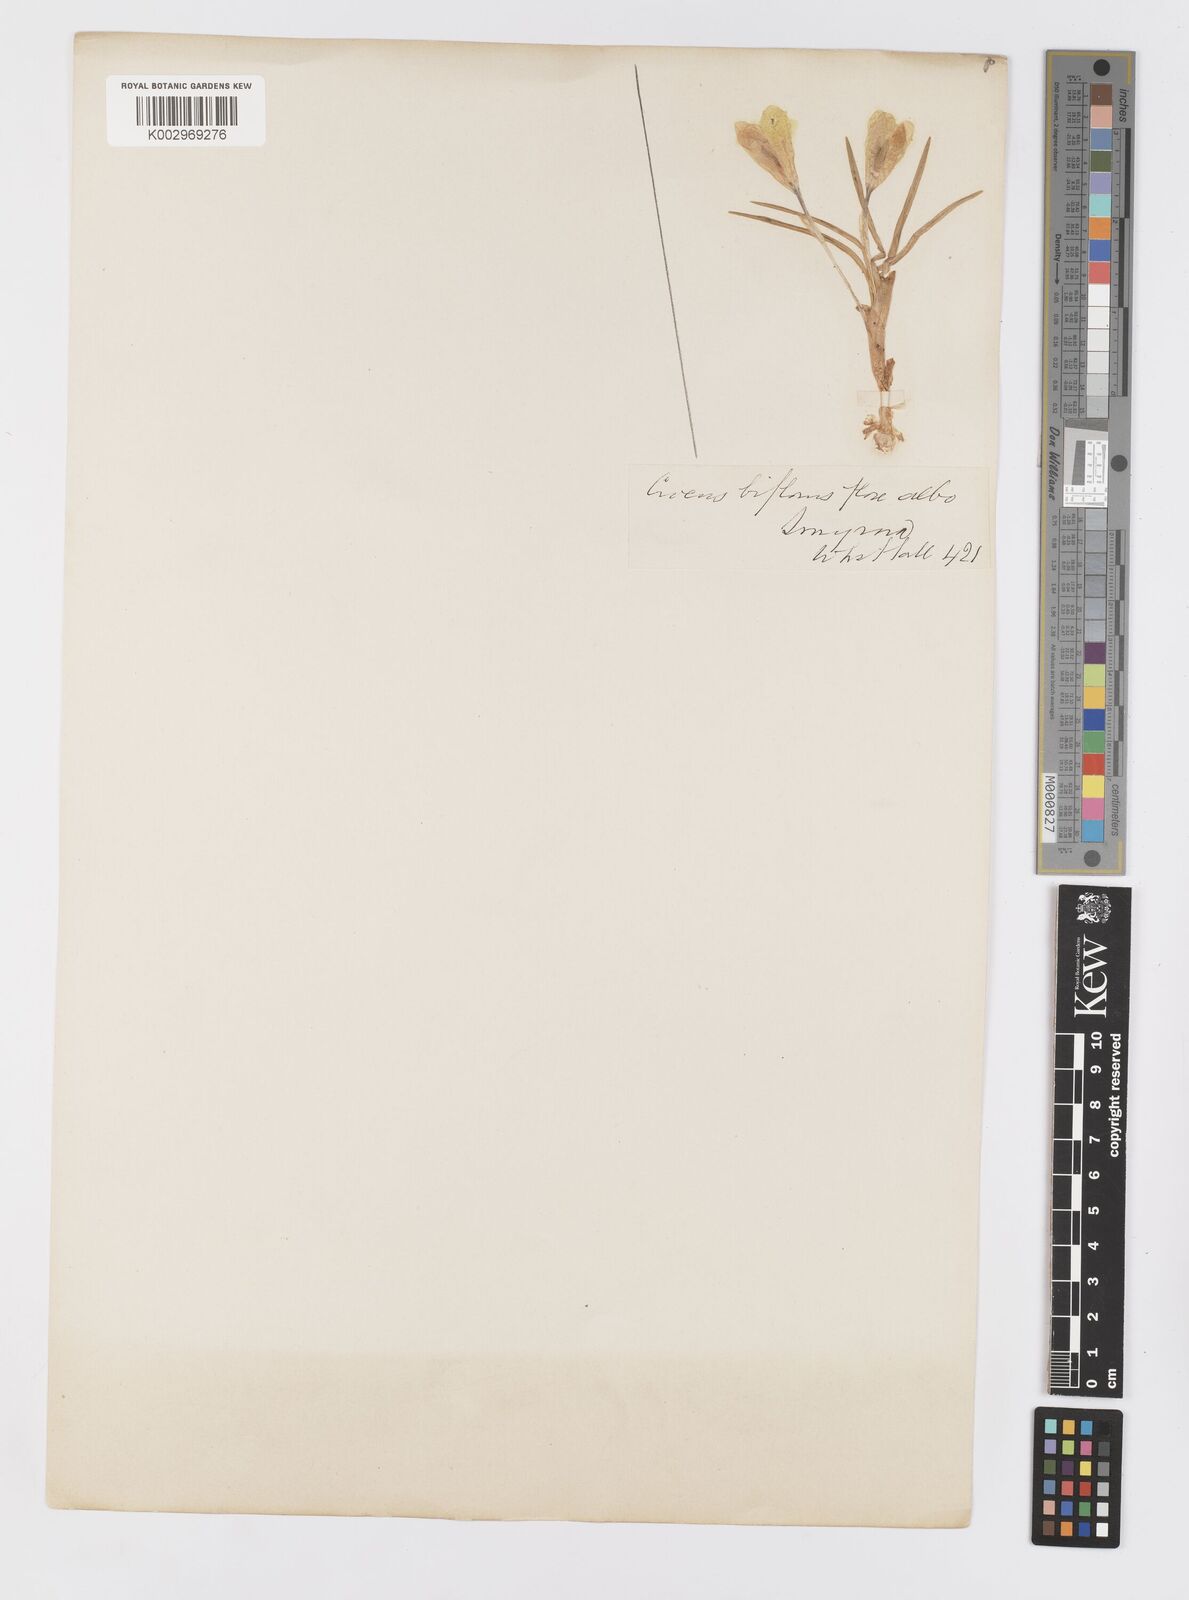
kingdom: Plantae
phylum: Tracheophyta
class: Liliopsida
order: Asparagales
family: Iridaceae
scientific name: Iridaceae
